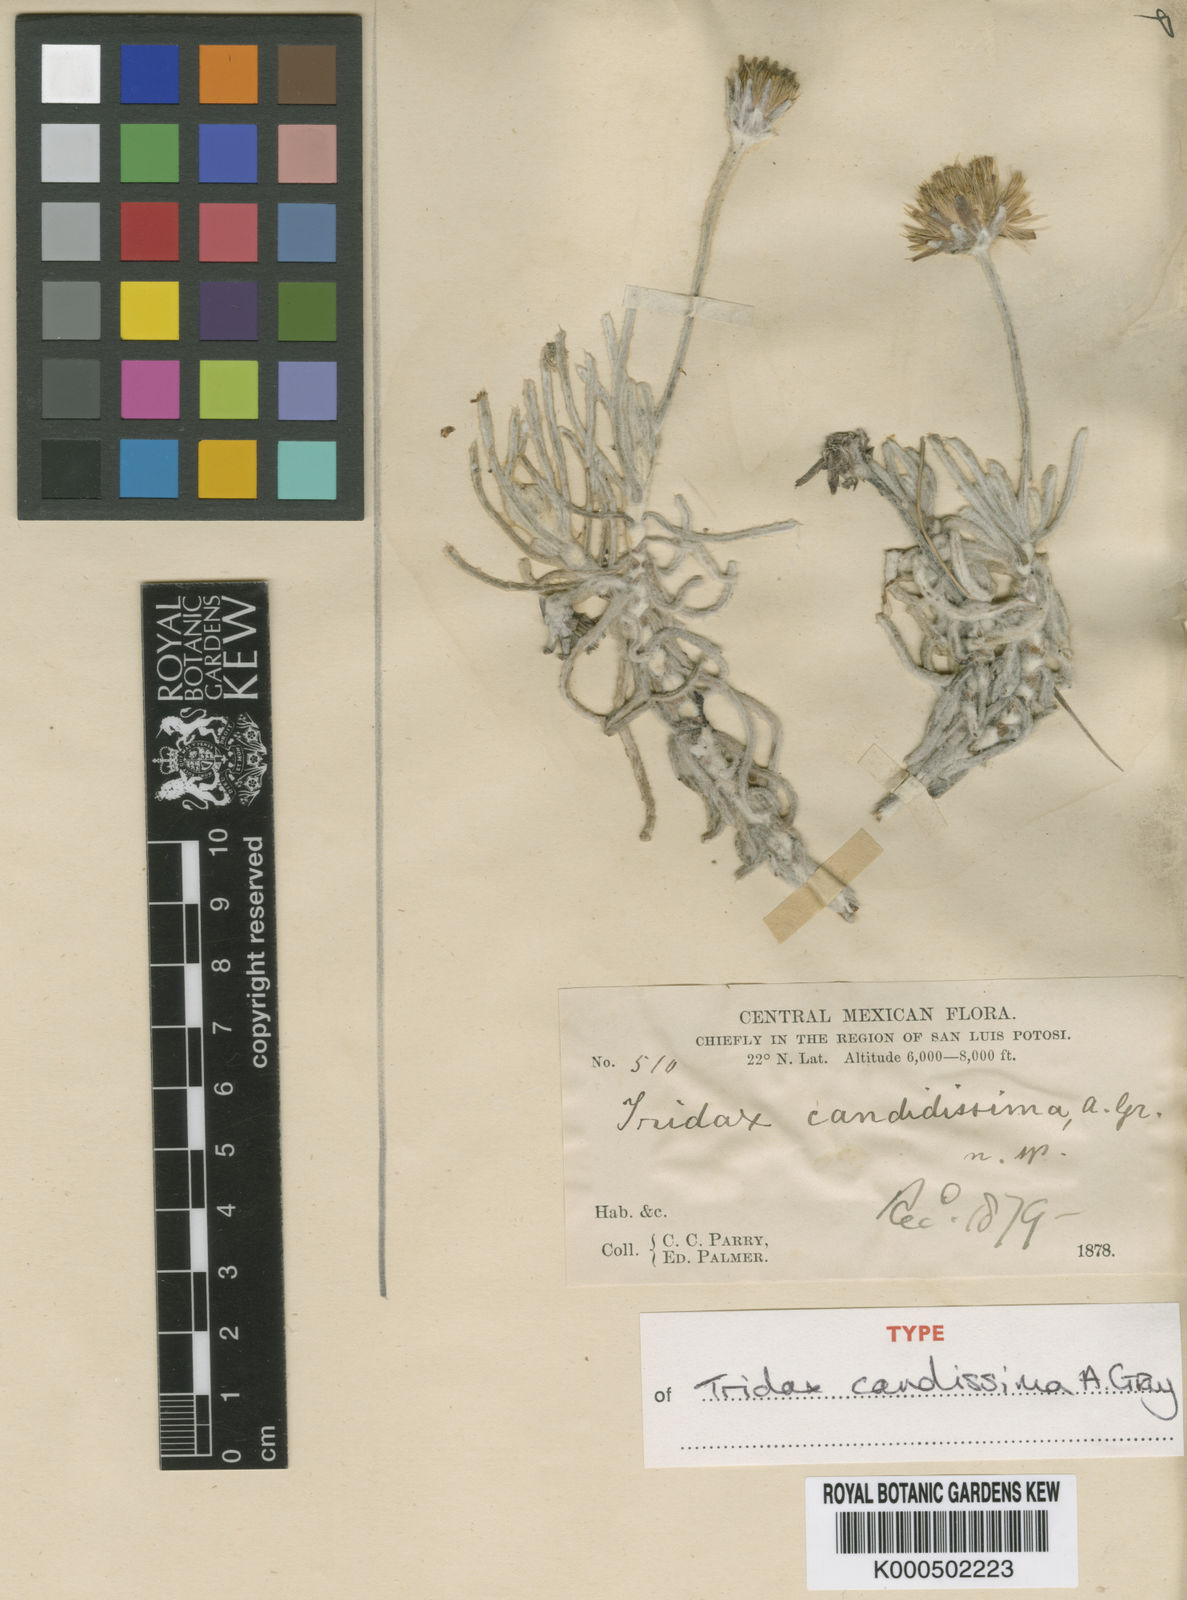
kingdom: Plantae
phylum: Tracheophyta
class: Magnoliopsida
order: Asterales
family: Asteraceae
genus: Tridax
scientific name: Tridax candidissima
